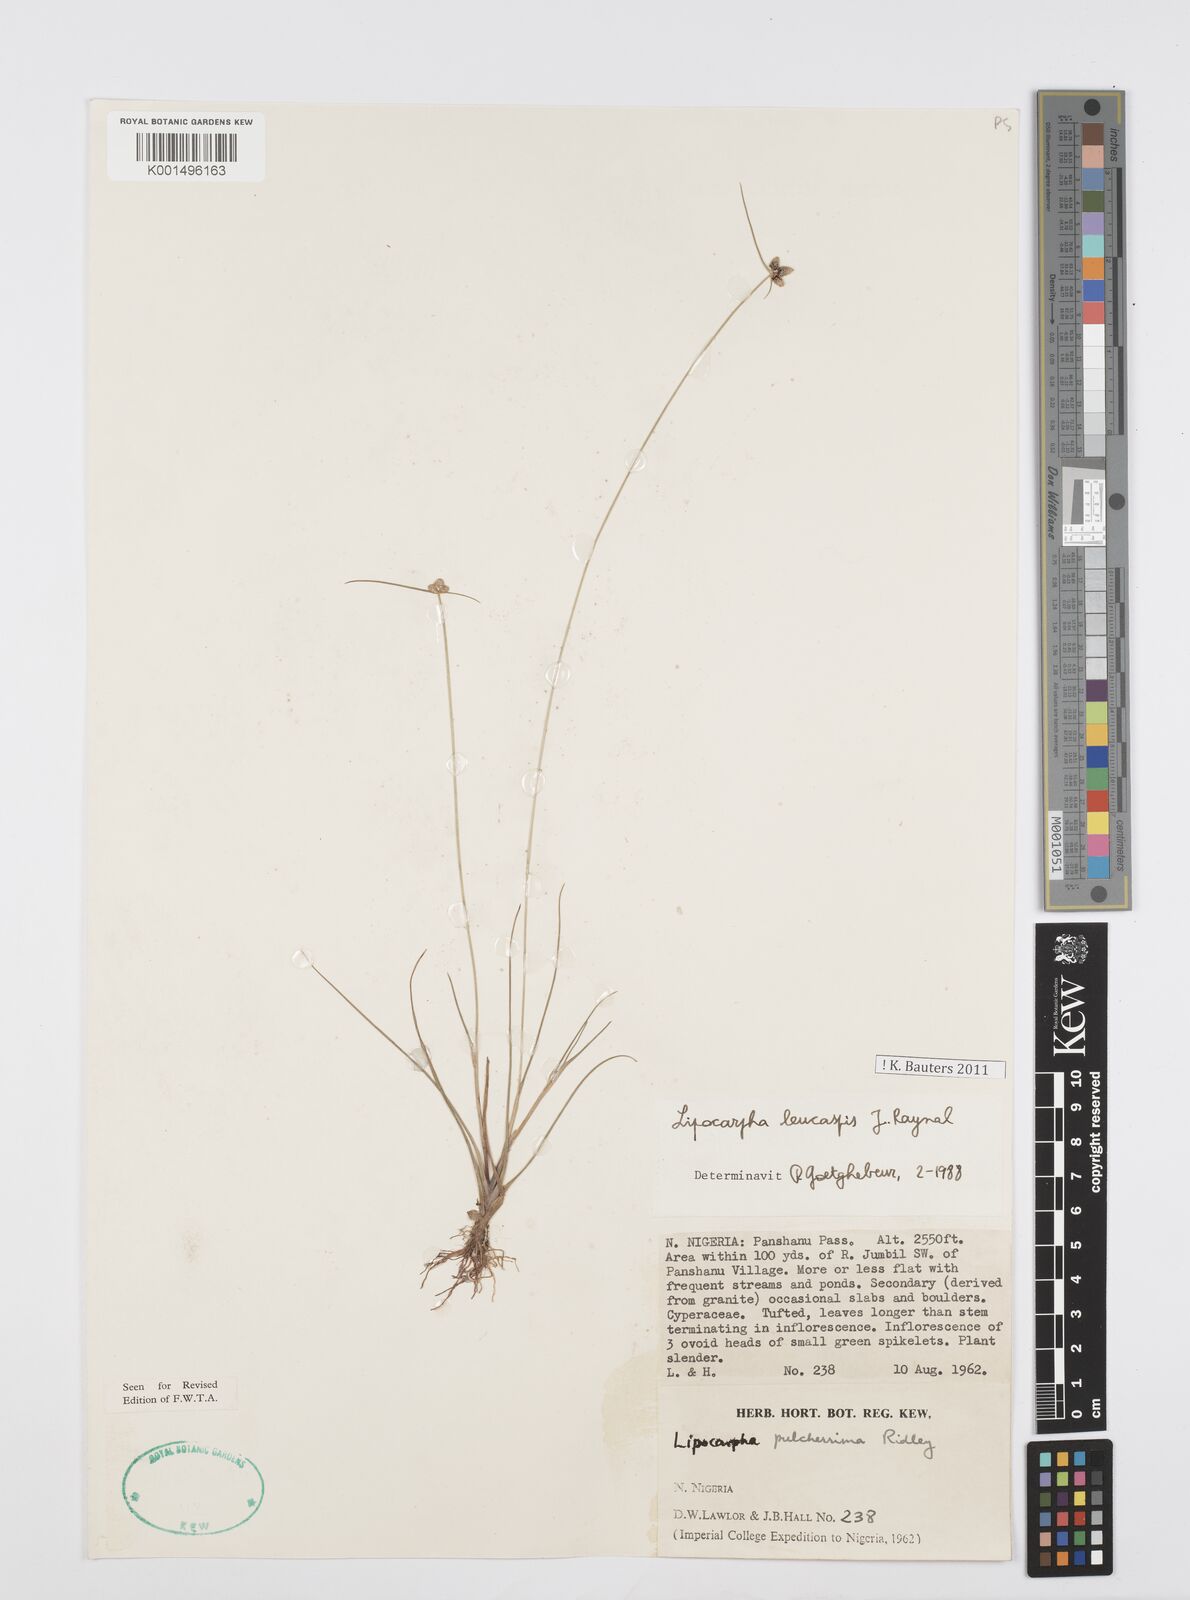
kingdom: Plantae
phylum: Tracheophyta
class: Liliopsida
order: Poales
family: Cyperaceae
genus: Cyperus
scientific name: Cyperus leucaspis
